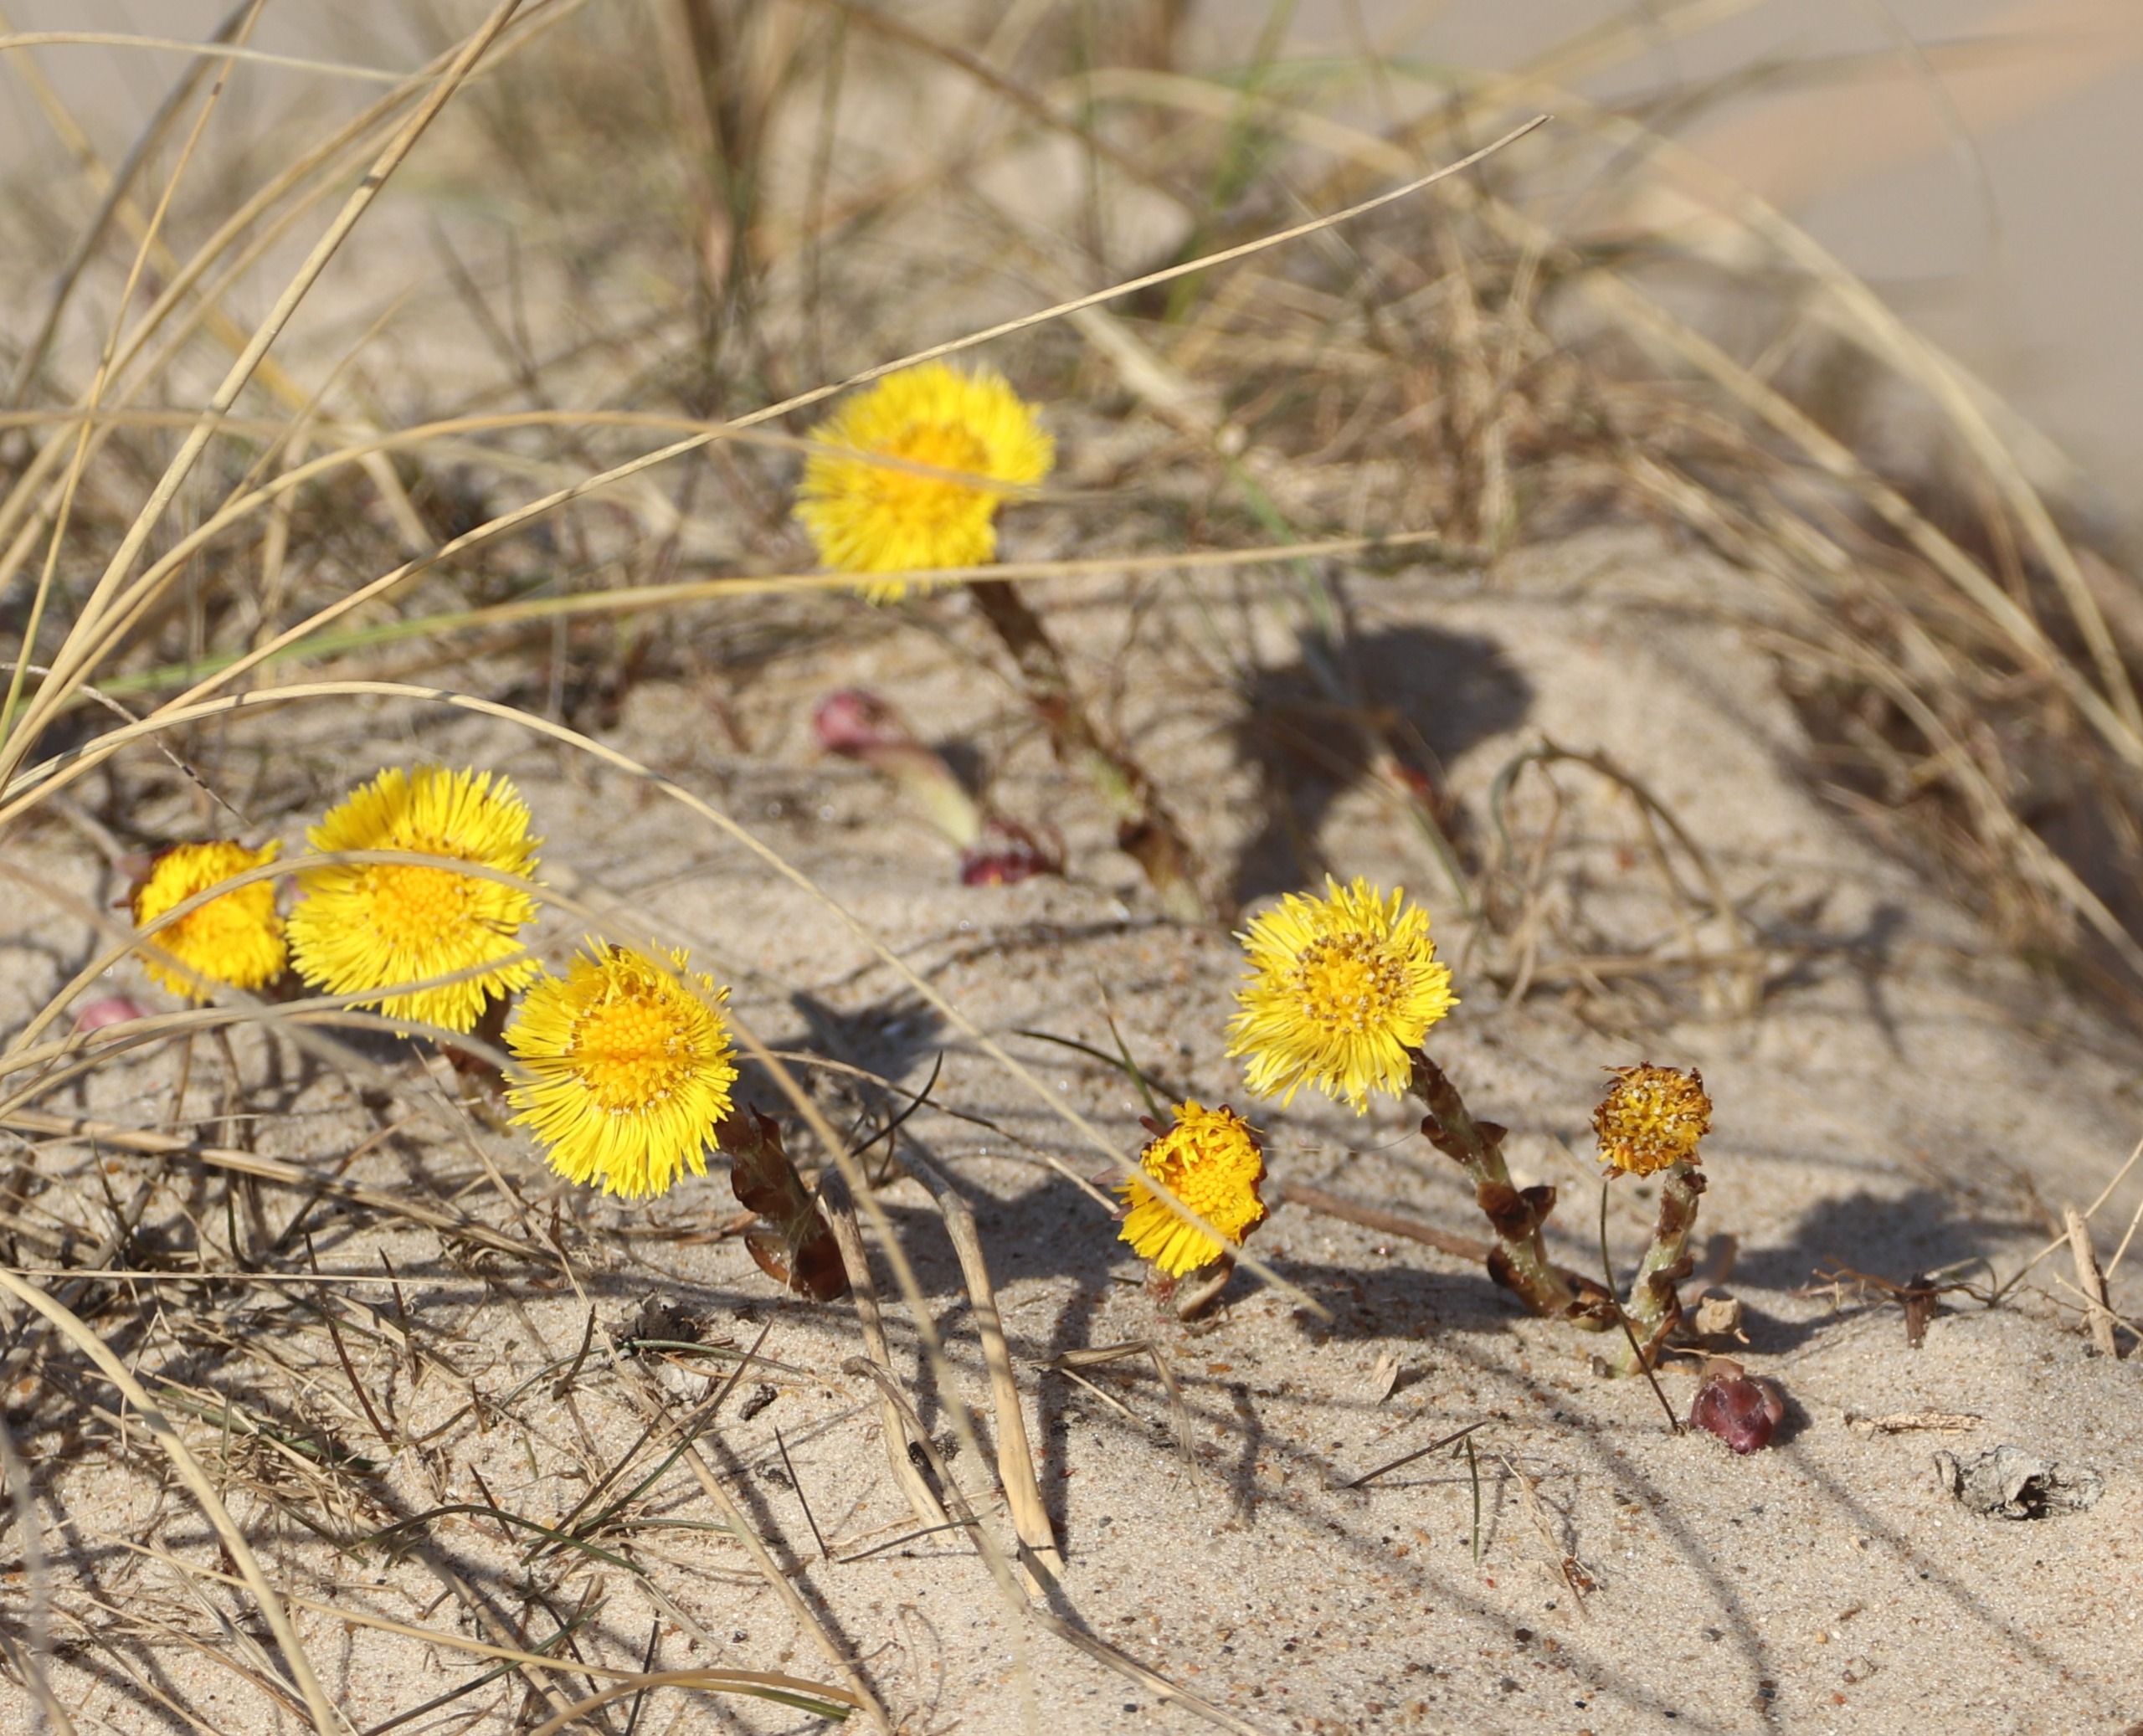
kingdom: Plantae
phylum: Tracheophyta
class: Magnoliopsida
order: Asterales
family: Asteraceae
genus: Tussilago
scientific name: Tussilago farfara
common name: Følfod
